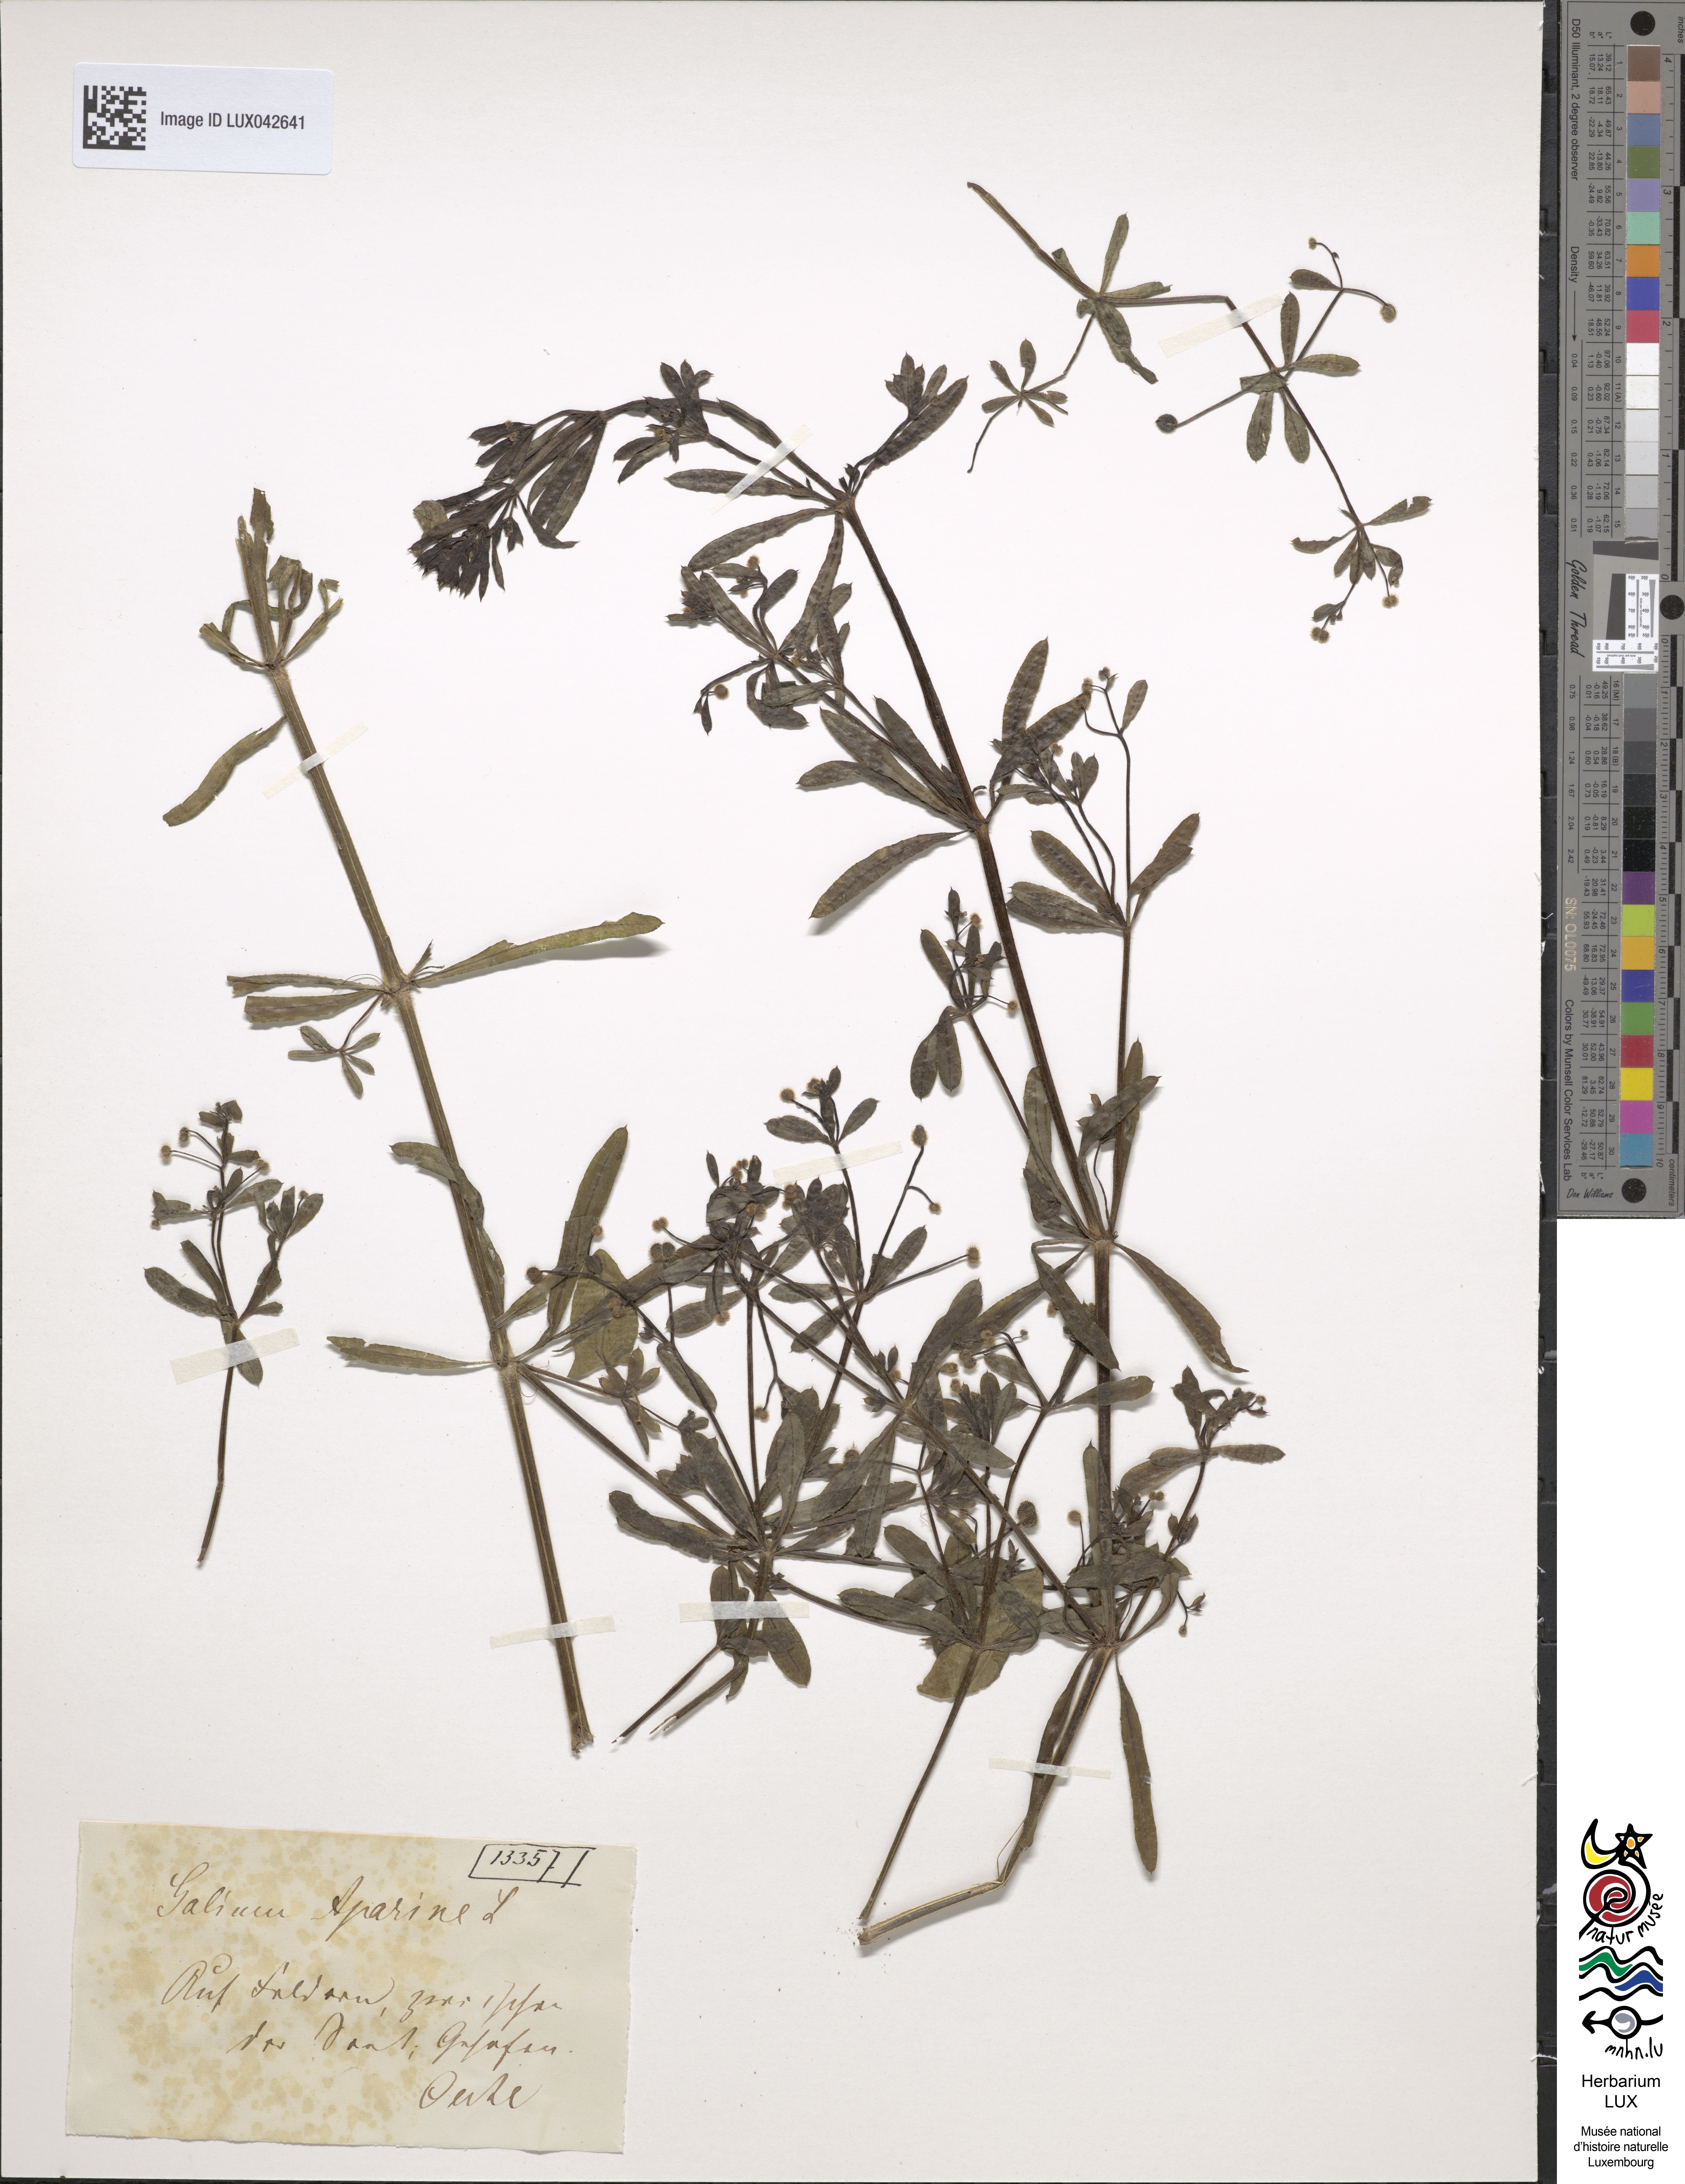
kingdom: Plantae
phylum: Tracheophyta
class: Magnoliopsida
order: Gentianales
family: Rubiaceae
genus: Galium
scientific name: Galium aparine
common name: Cleavers
